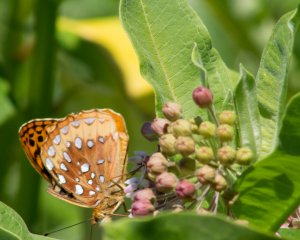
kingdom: Animalia
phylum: Arthropoda
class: Insecta
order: Lepidoptera
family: Nymphalidae
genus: Speyeria
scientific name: Speyeria cybele
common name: Great Spangled Fritillary
